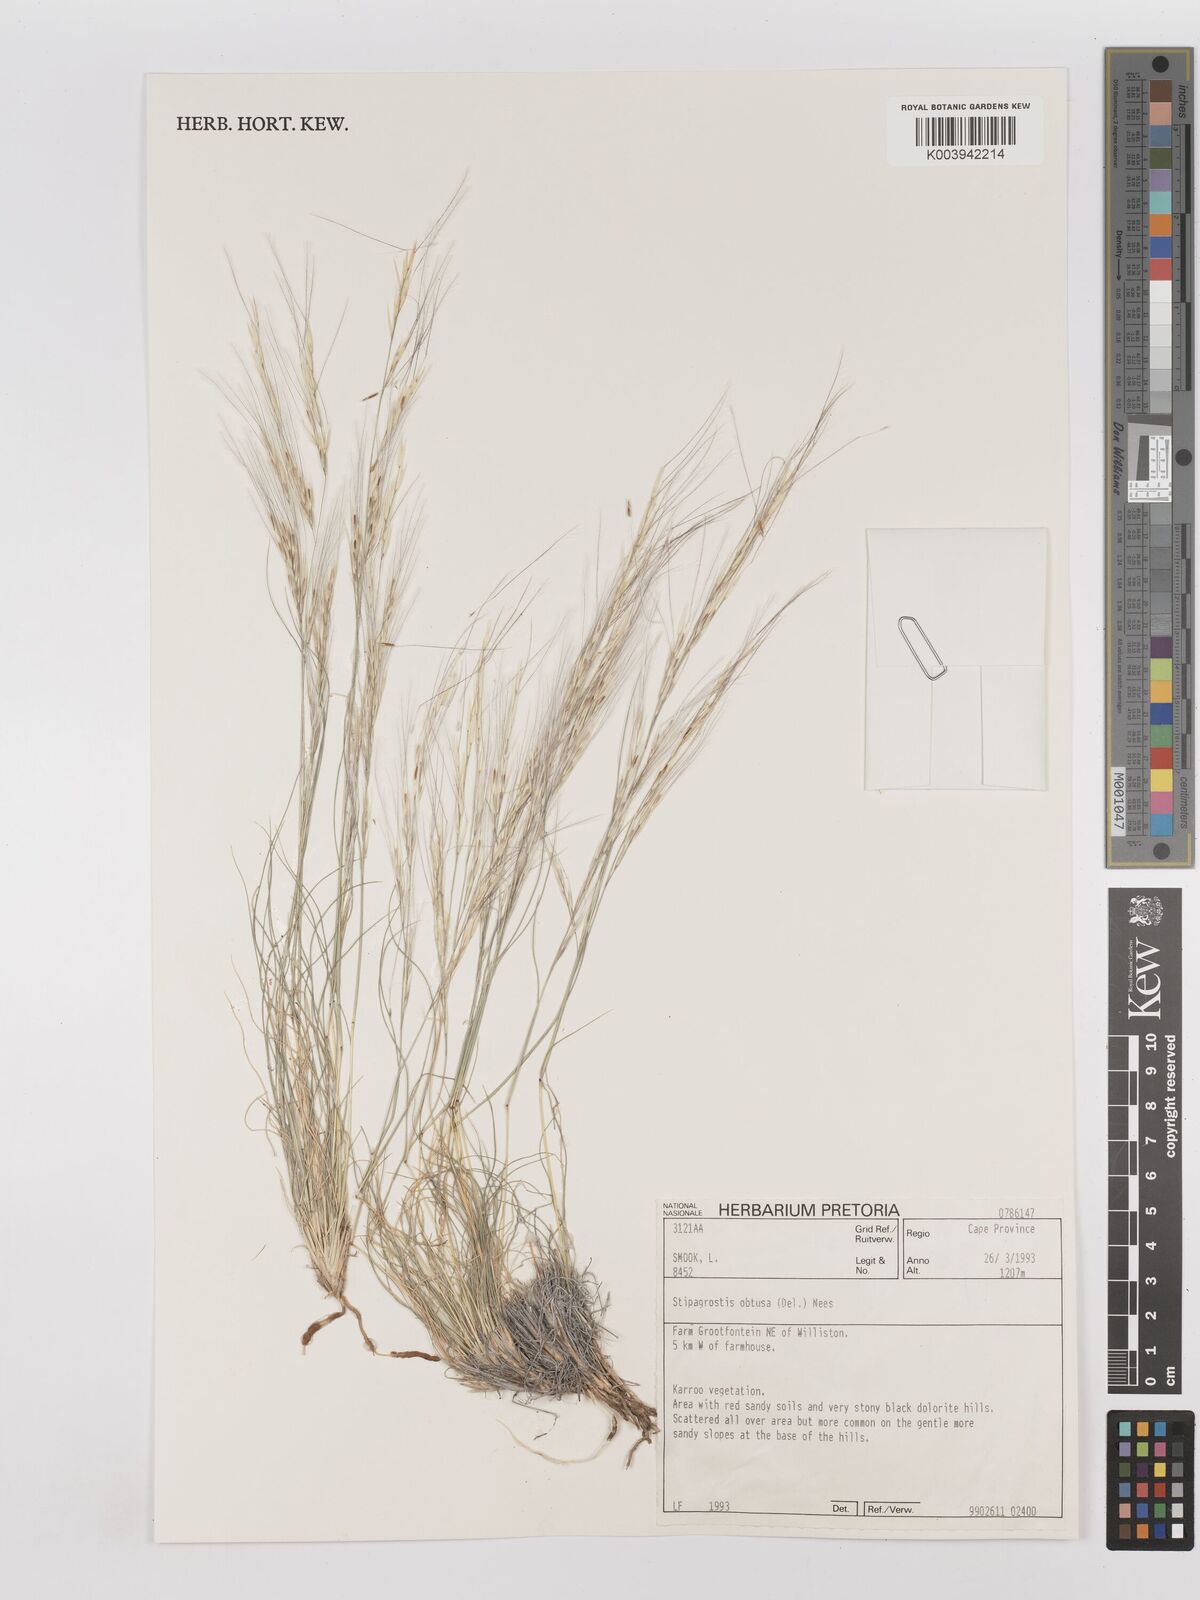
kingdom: Plantae
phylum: Tracheophyta
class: Liliopsida
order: Poales
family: Poaceae
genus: Stipagrostis
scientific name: Stipagrostis obtusa
